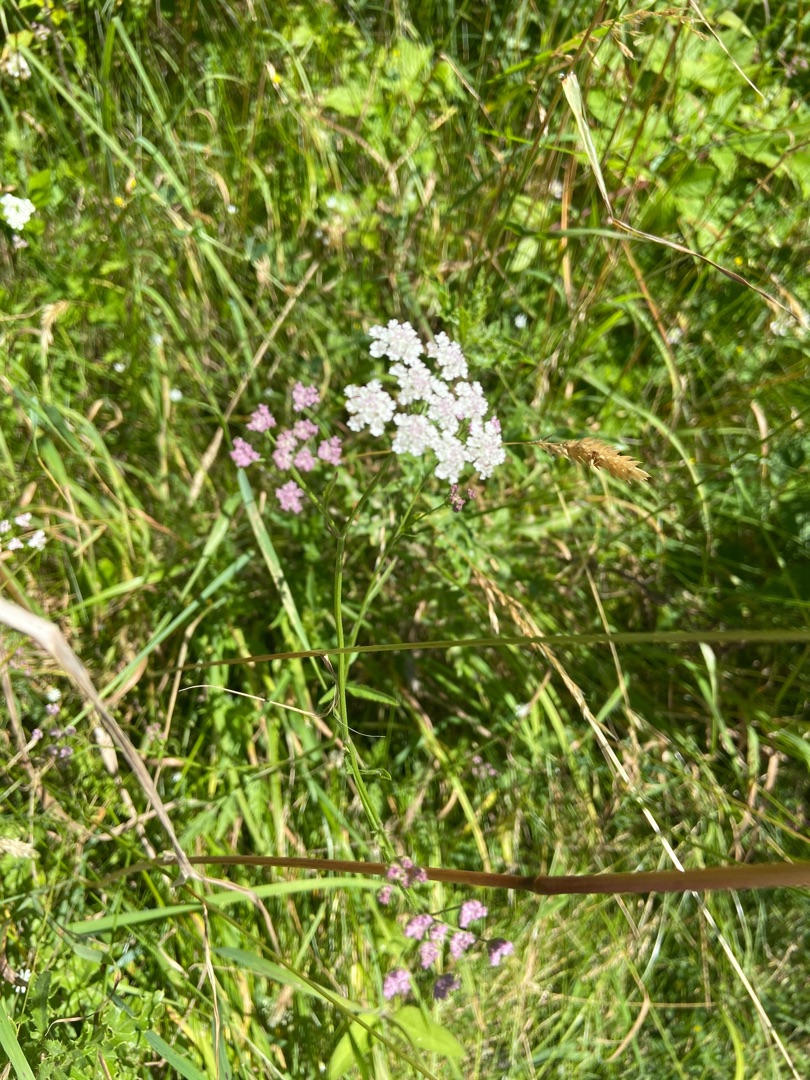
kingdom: Plantae
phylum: Tracheophyta
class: Magnoliopsida
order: Apiales
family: Apiaceae
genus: Torilis
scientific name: Torilis japonica
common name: Hvas randfrø
